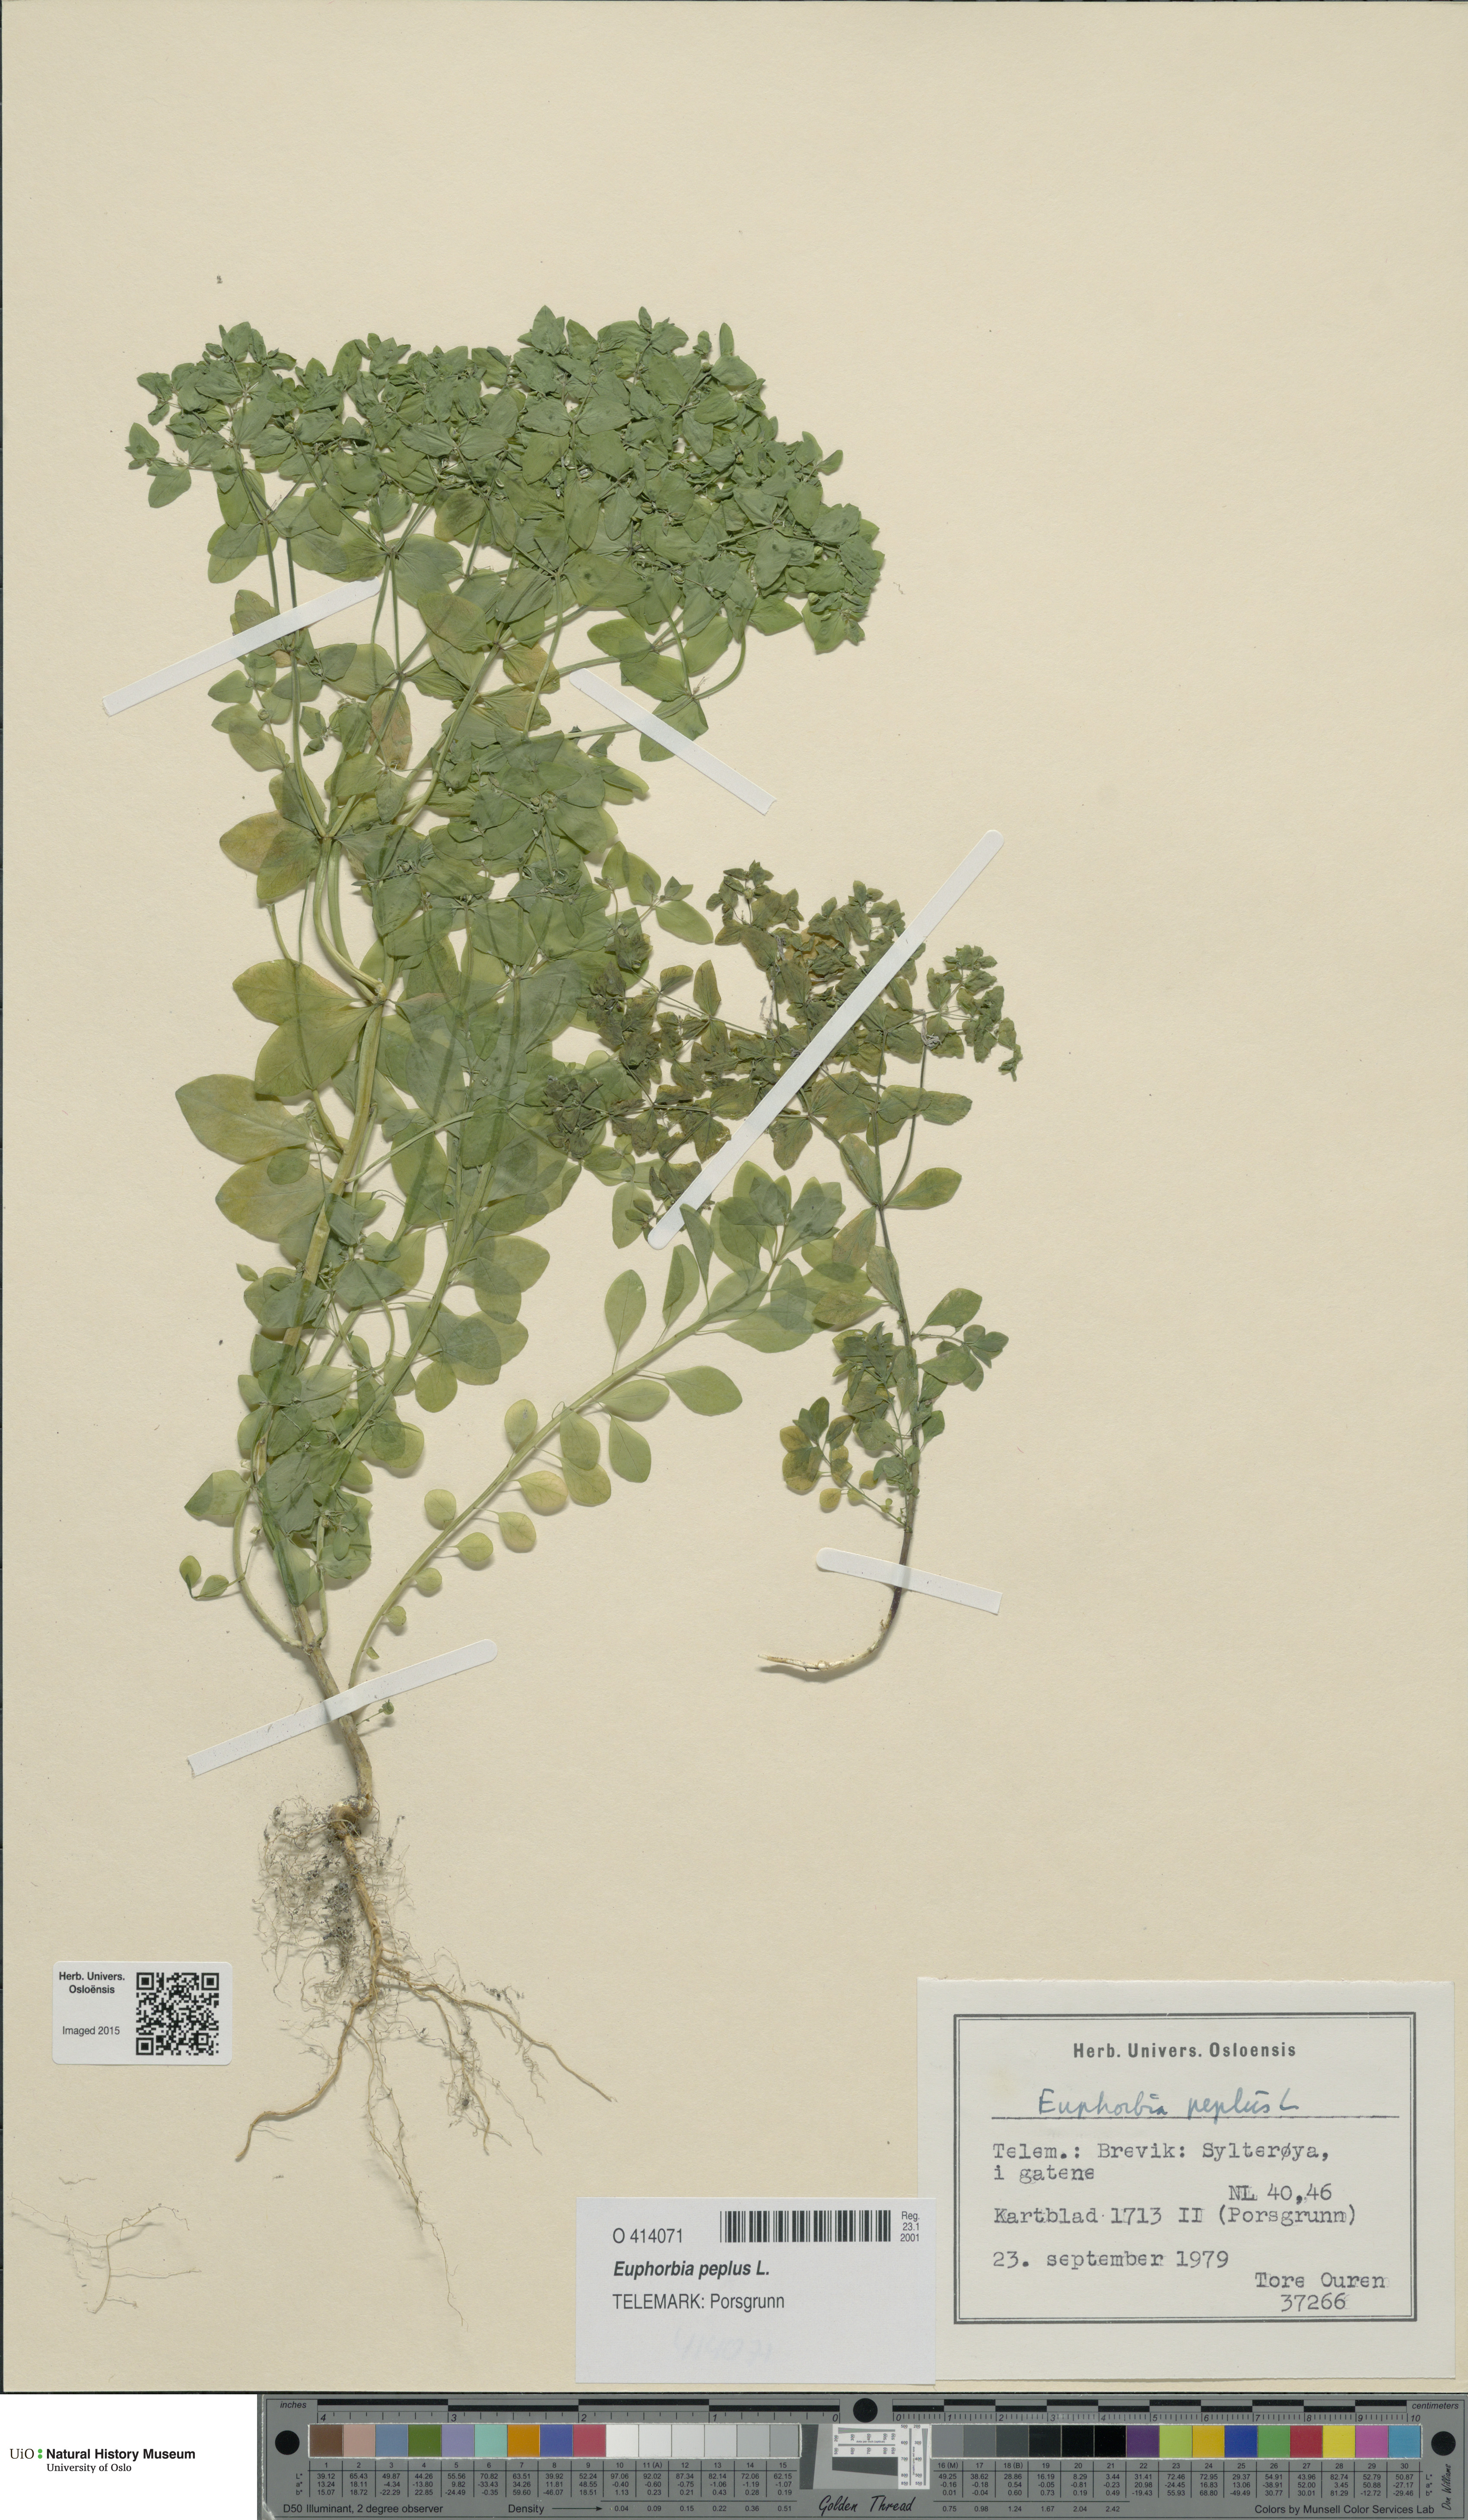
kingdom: Plantae
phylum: Tracheophyta
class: Magnoliopsida
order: Malpighiales
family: Euphorbiaceae
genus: Euphorbia
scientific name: Euphorbia peplus
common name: Petty spurge
